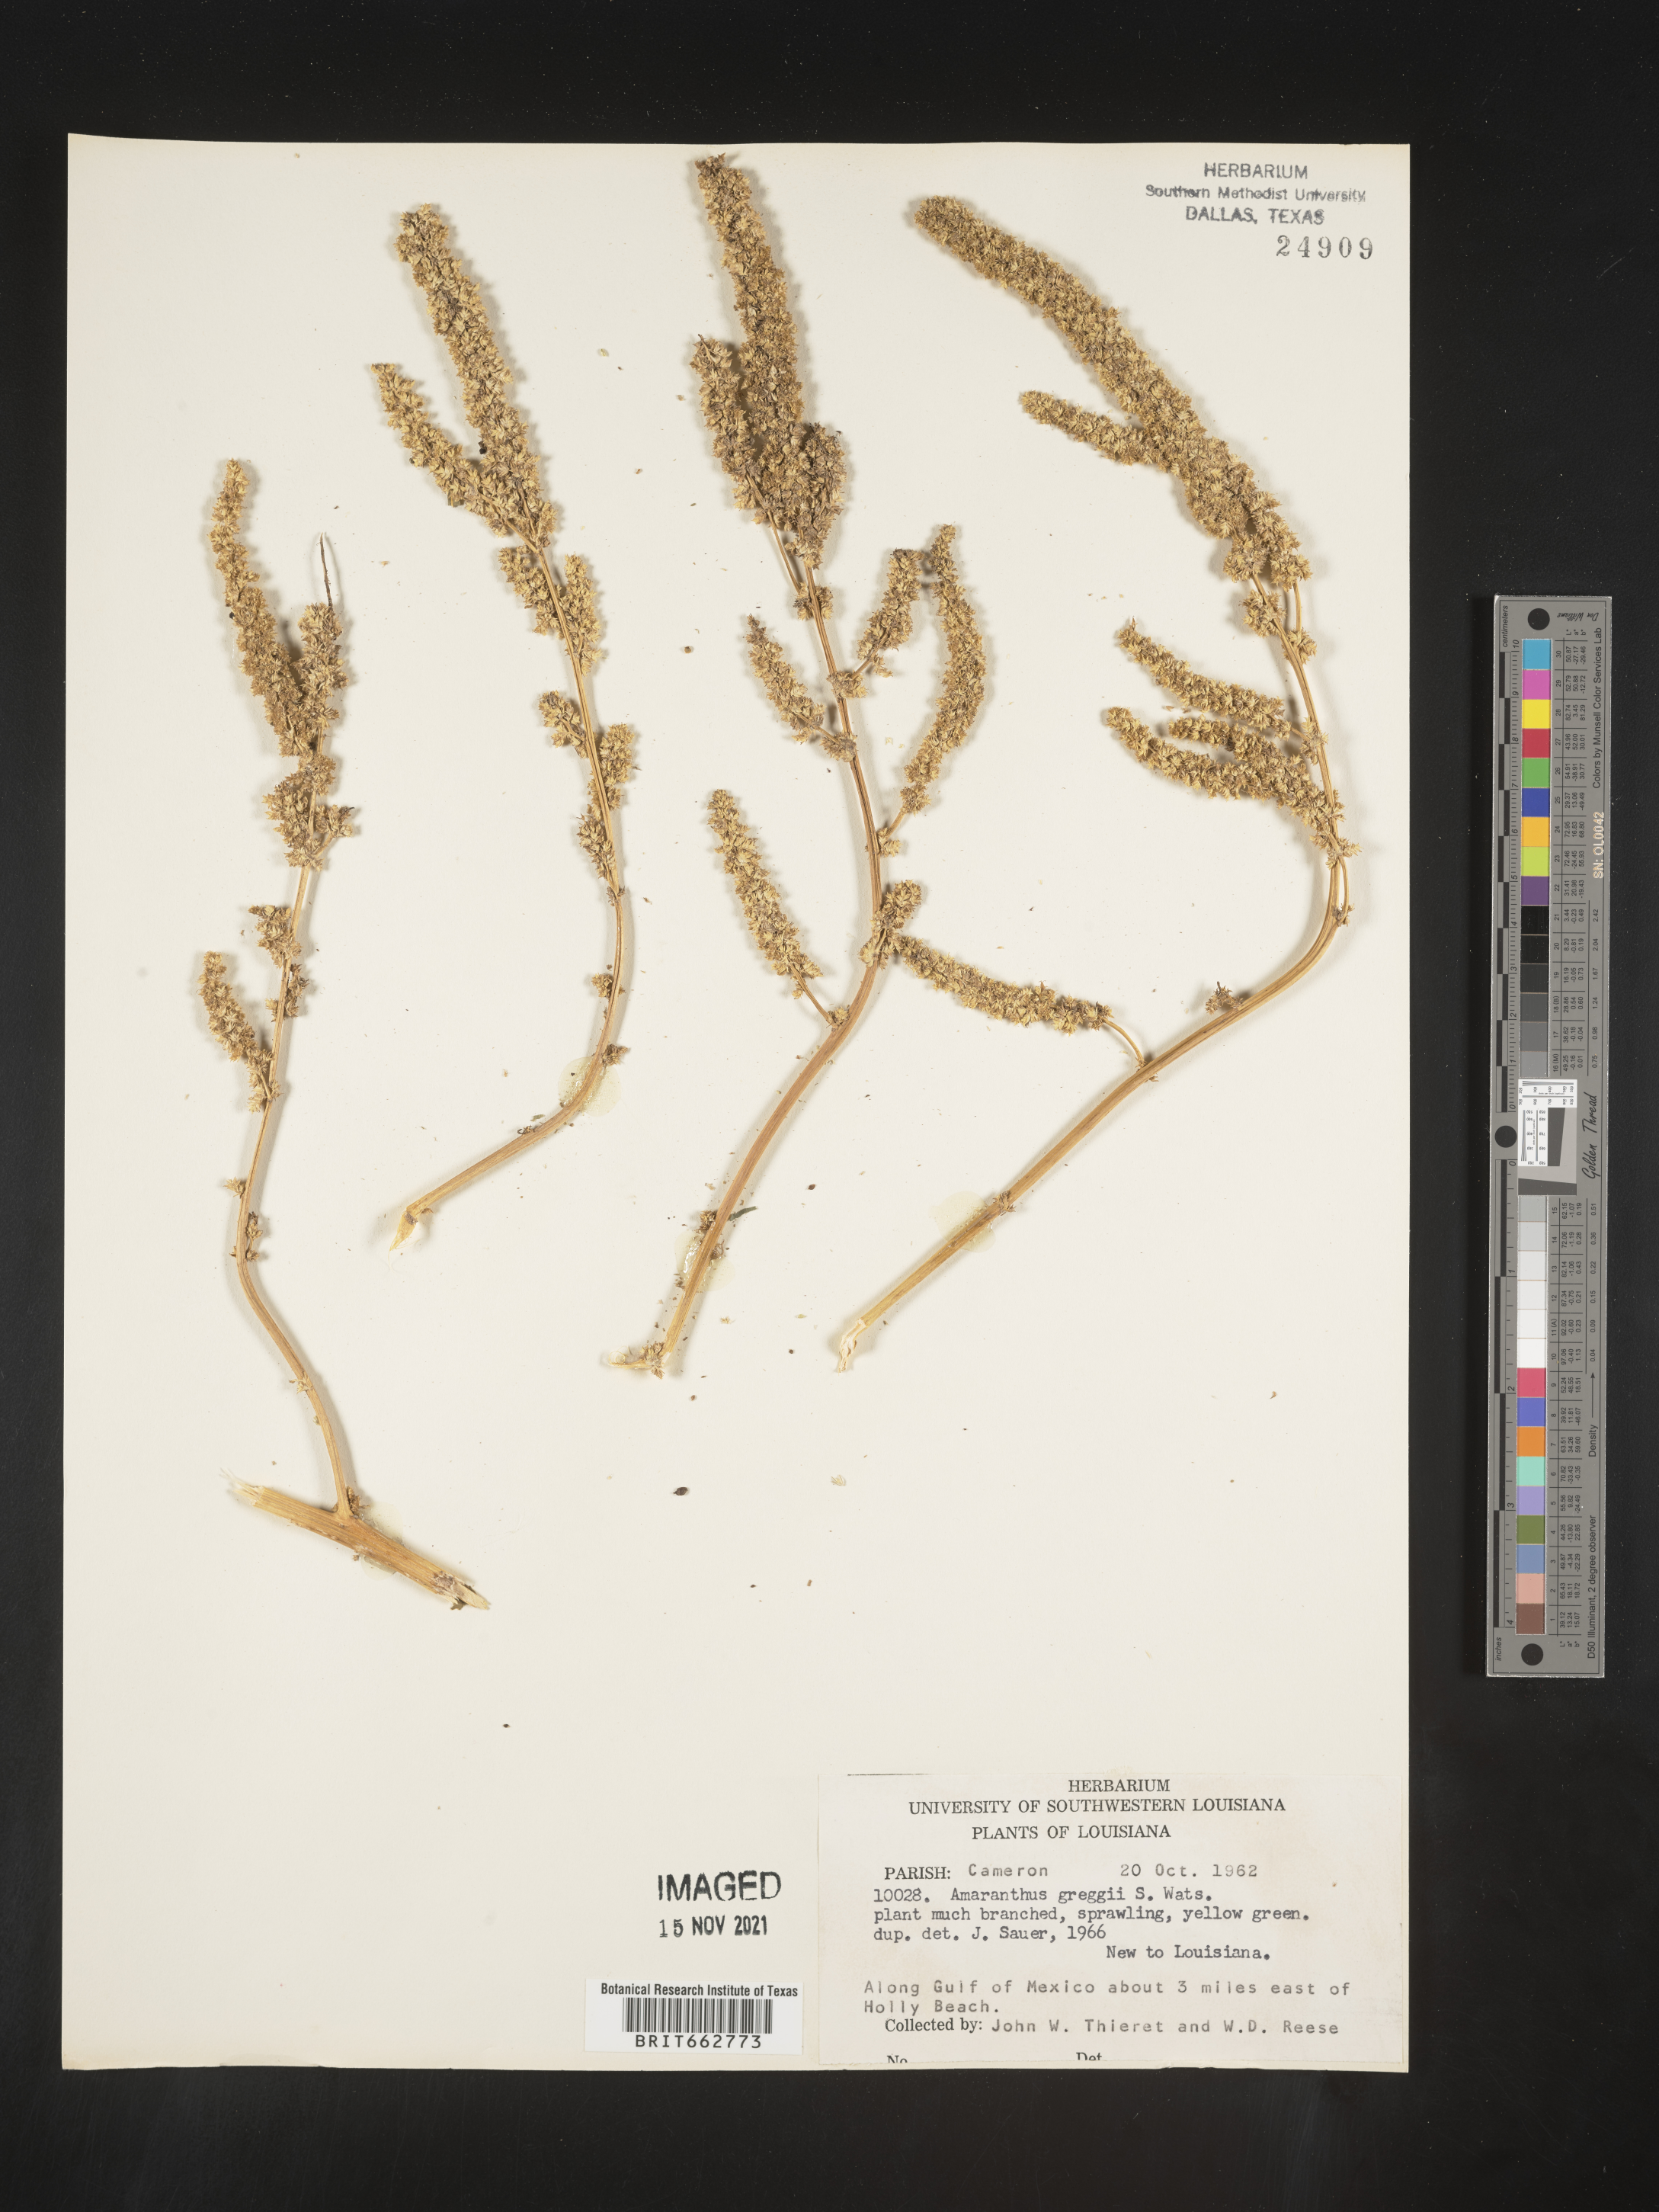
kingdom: Plantae
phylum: Tracheophyta
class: Magnoliopsida
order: Caryophyllales
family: Amaranthaceae
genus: Amaranthus
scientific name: Amaranthus
